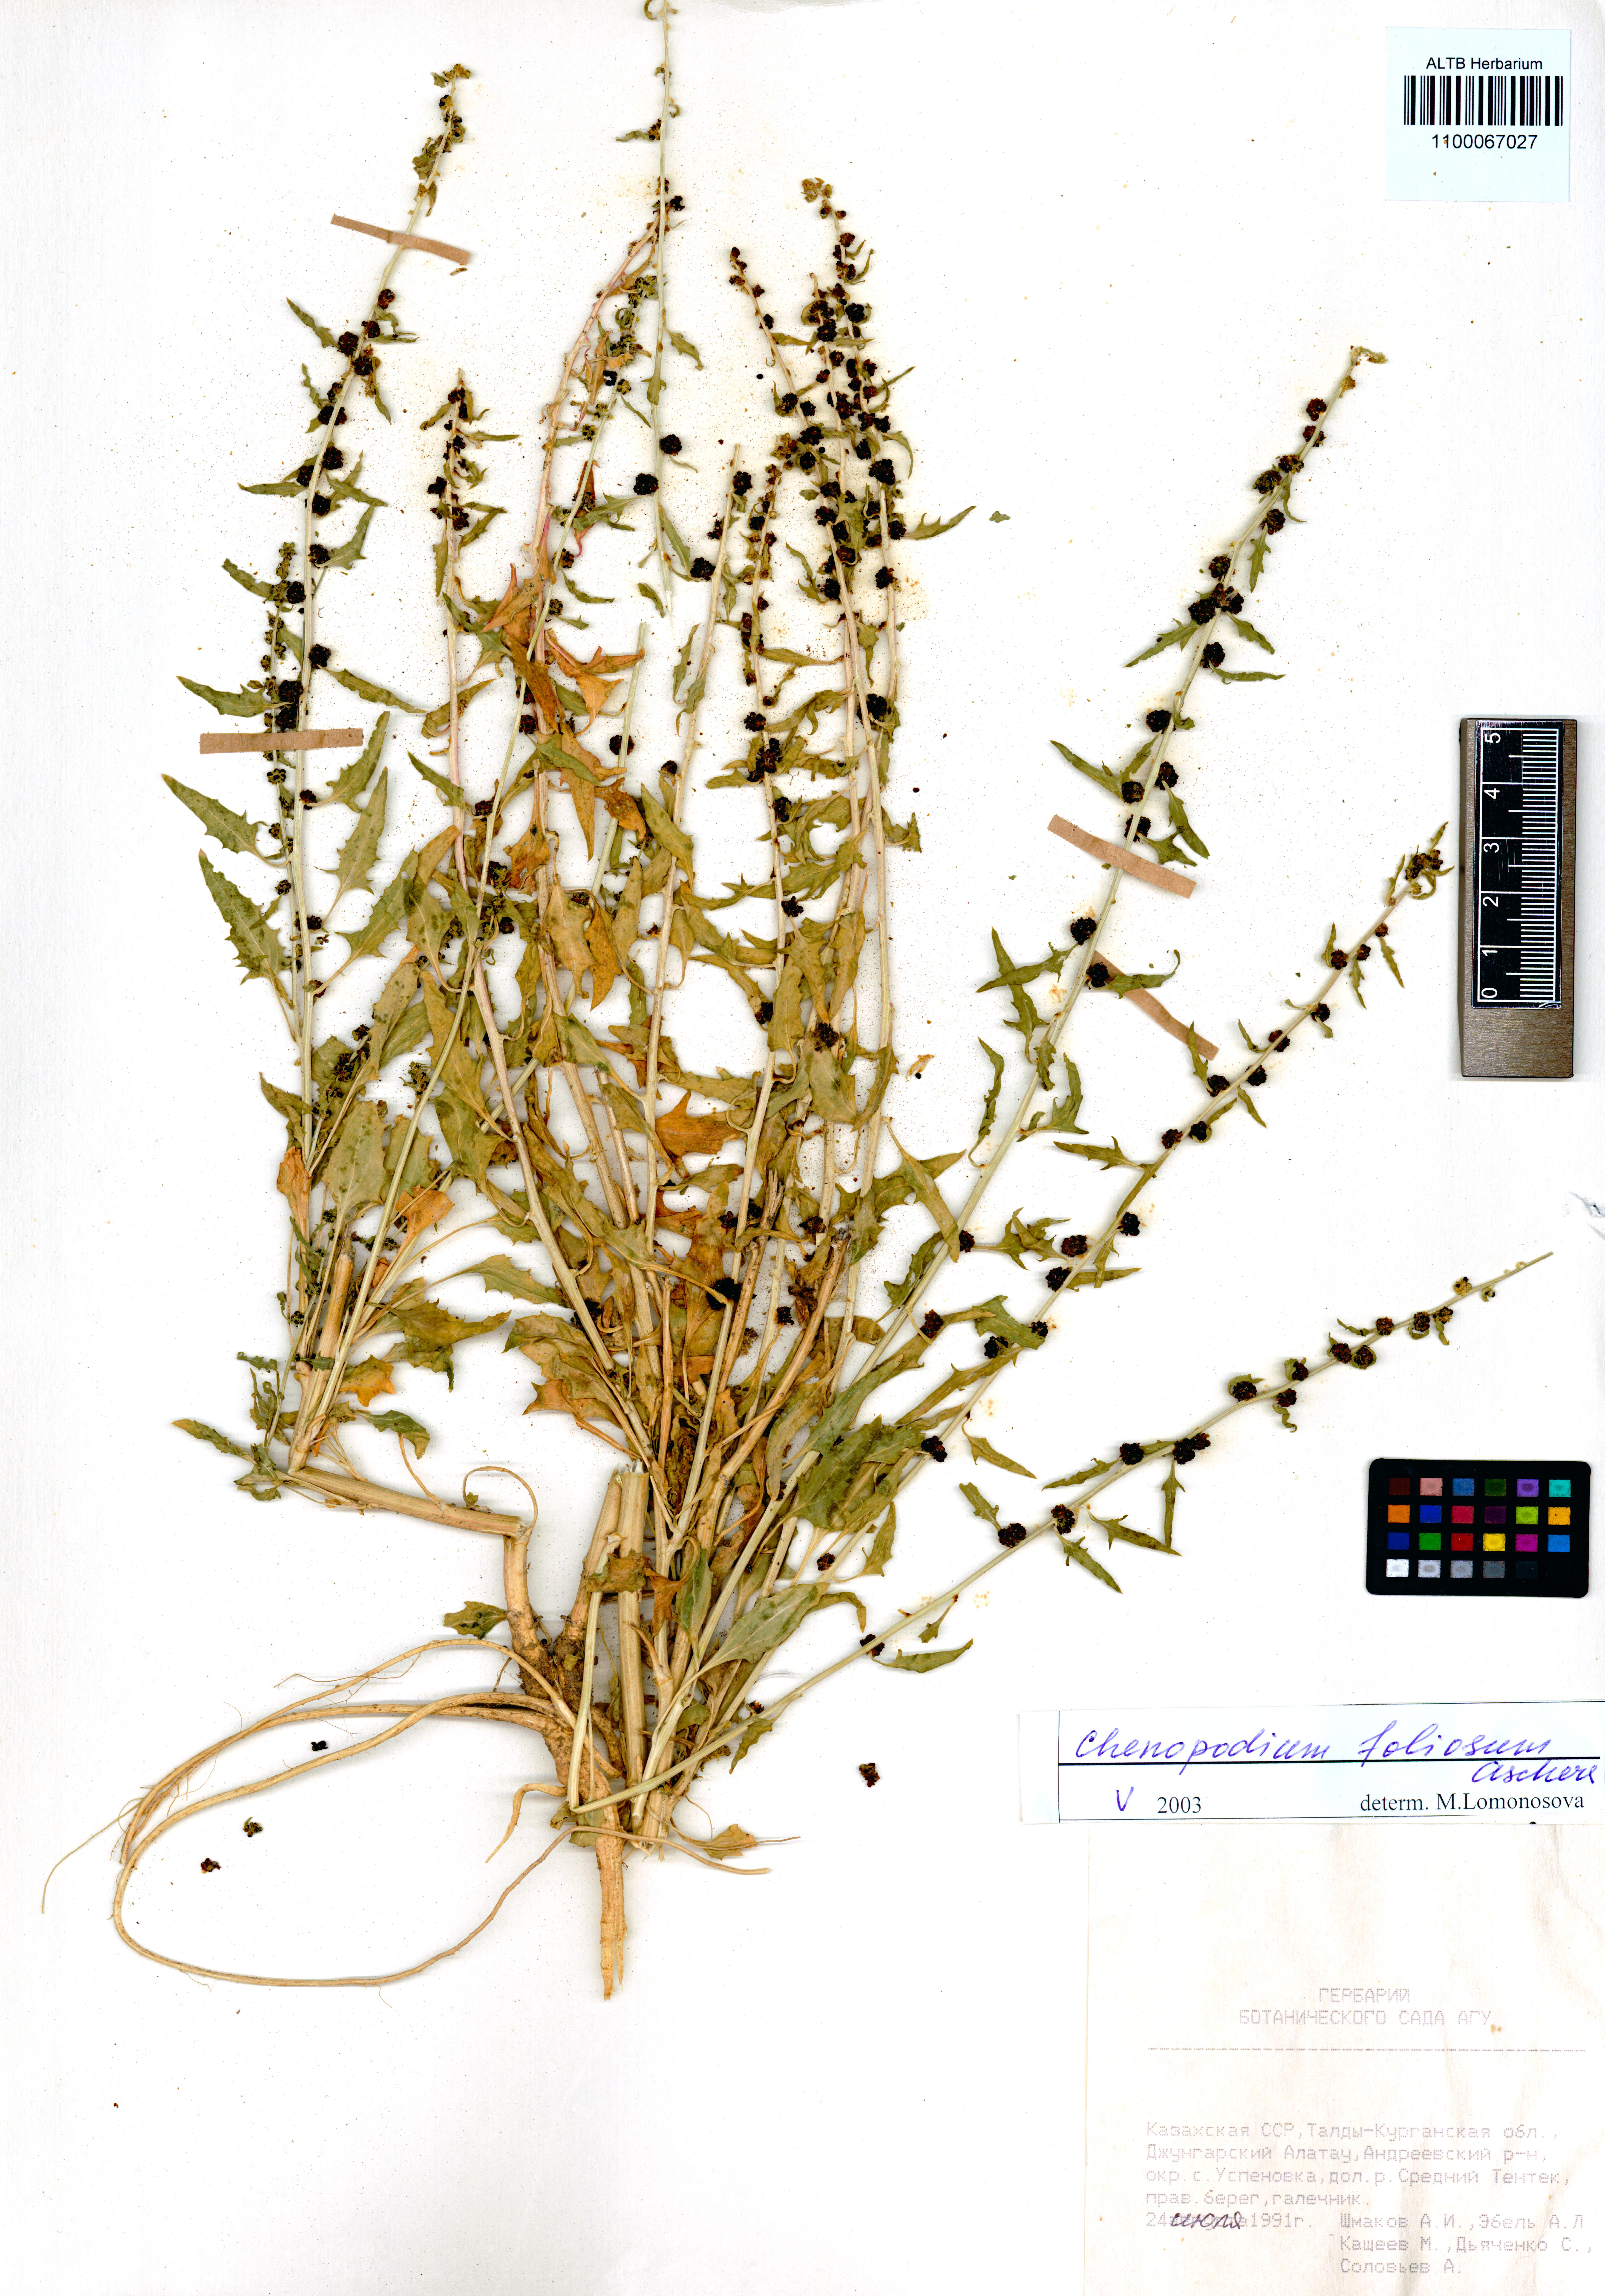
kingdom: Plantae
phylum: Tracheophyta
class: Magnoliopsida
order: Caryophyllales
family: Amaranthaceae
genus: Blitum
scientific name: Blitum virgatum
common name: Strawberry goosefoot
